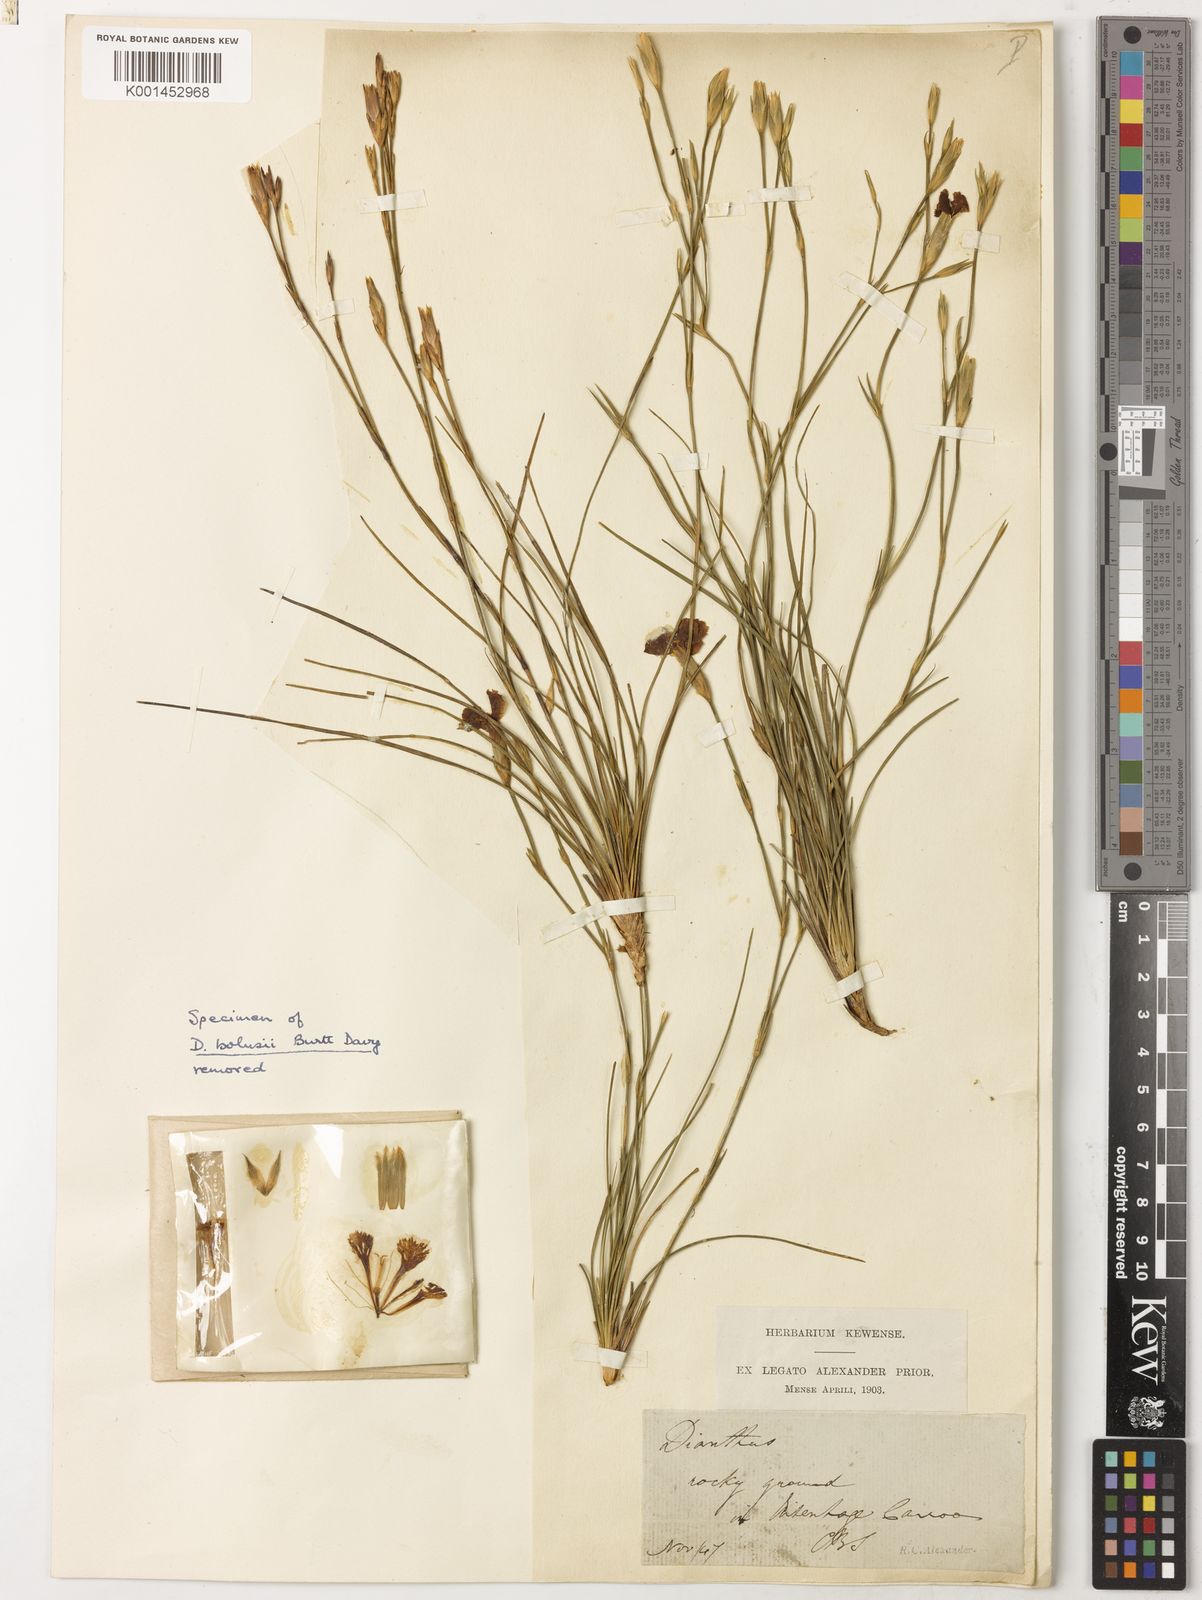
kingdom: Plantae
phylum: Tracheophyta
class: Magnoliopsida
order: Caryophyllales
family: Caryophyllaceae
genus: Dianthus
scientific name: Dianthus basuticus
